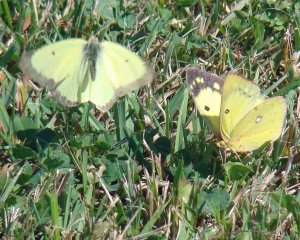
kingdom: Animalia
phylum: Arthropoda
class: Insecta
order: Lepidoptera
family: Pieridae
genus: Colias
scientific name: Colias philodice
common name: Clouded Sulphur
